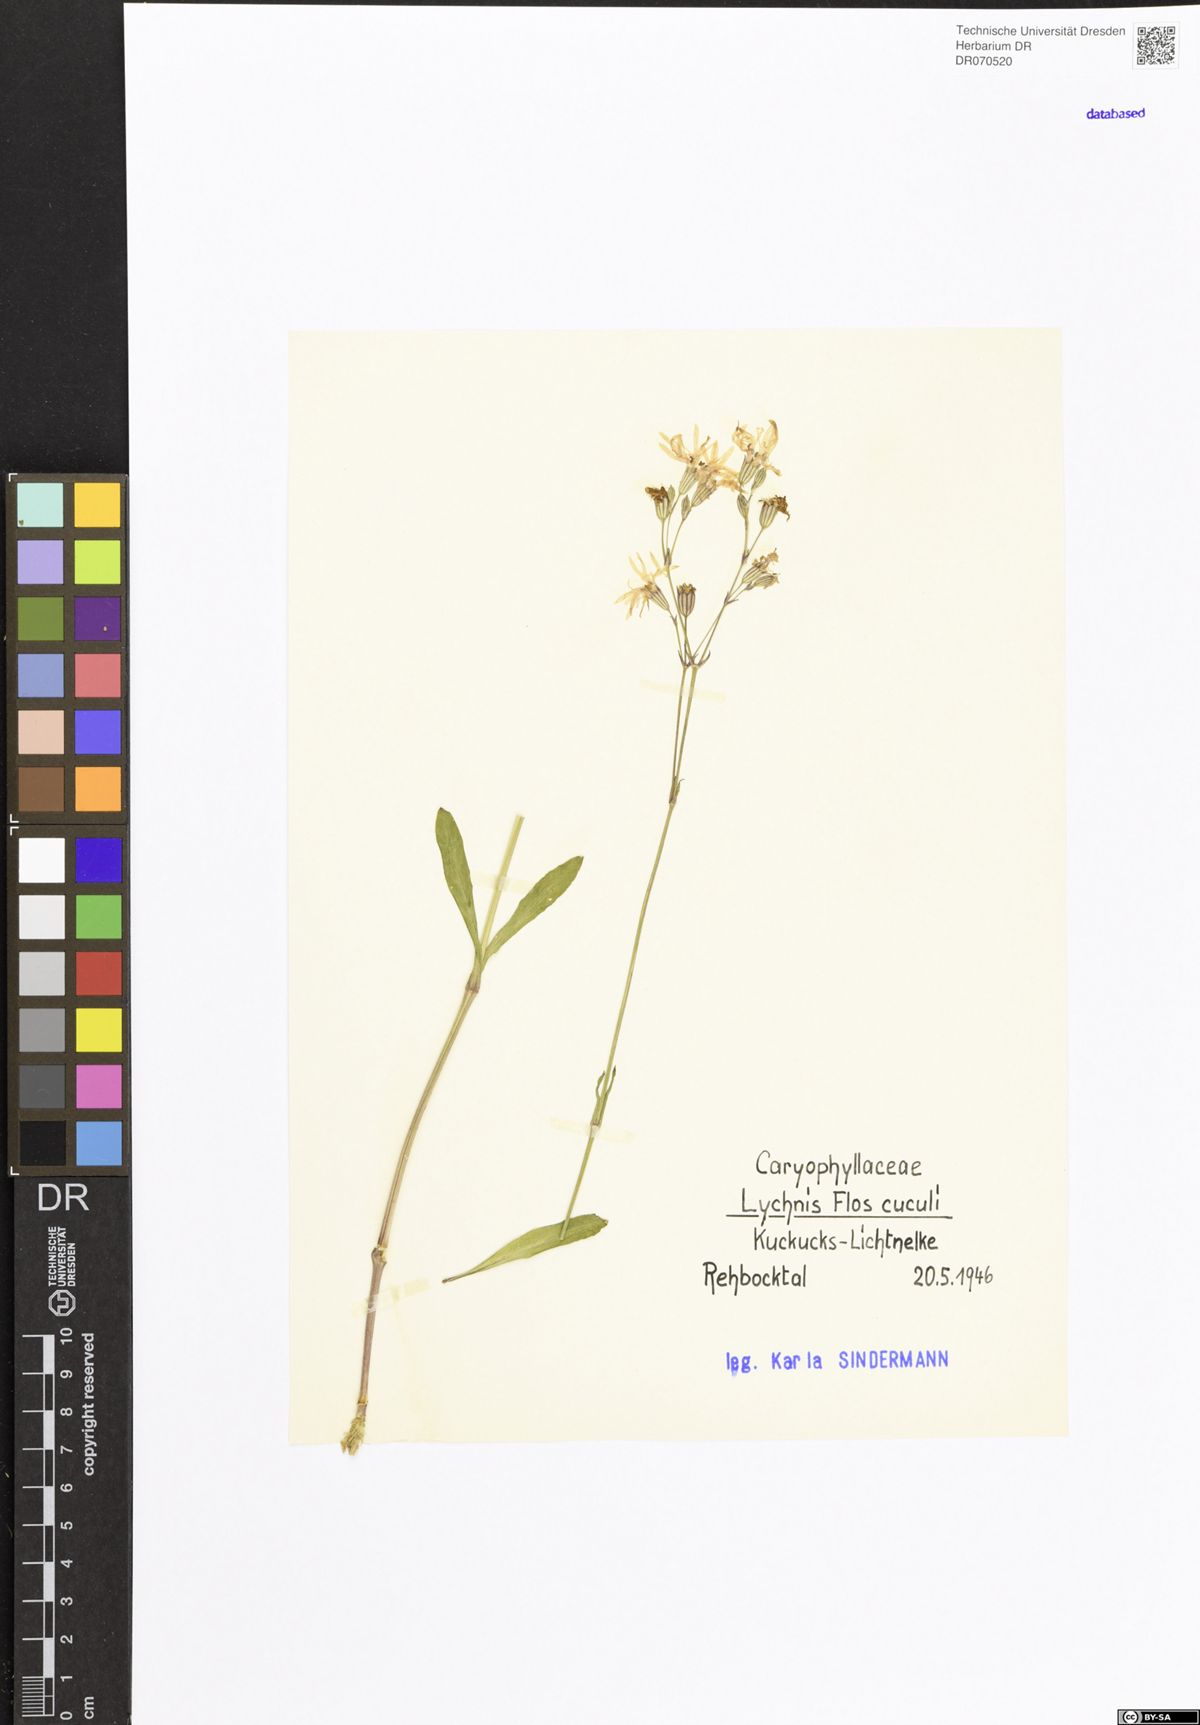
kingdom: Plantae
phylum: Tracheophyta
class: Magnoliopsida
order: Caryophyllales
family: Caryophyllaceae
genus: Silene
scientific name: Silene flos-cuculi
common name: Ragged-robin
